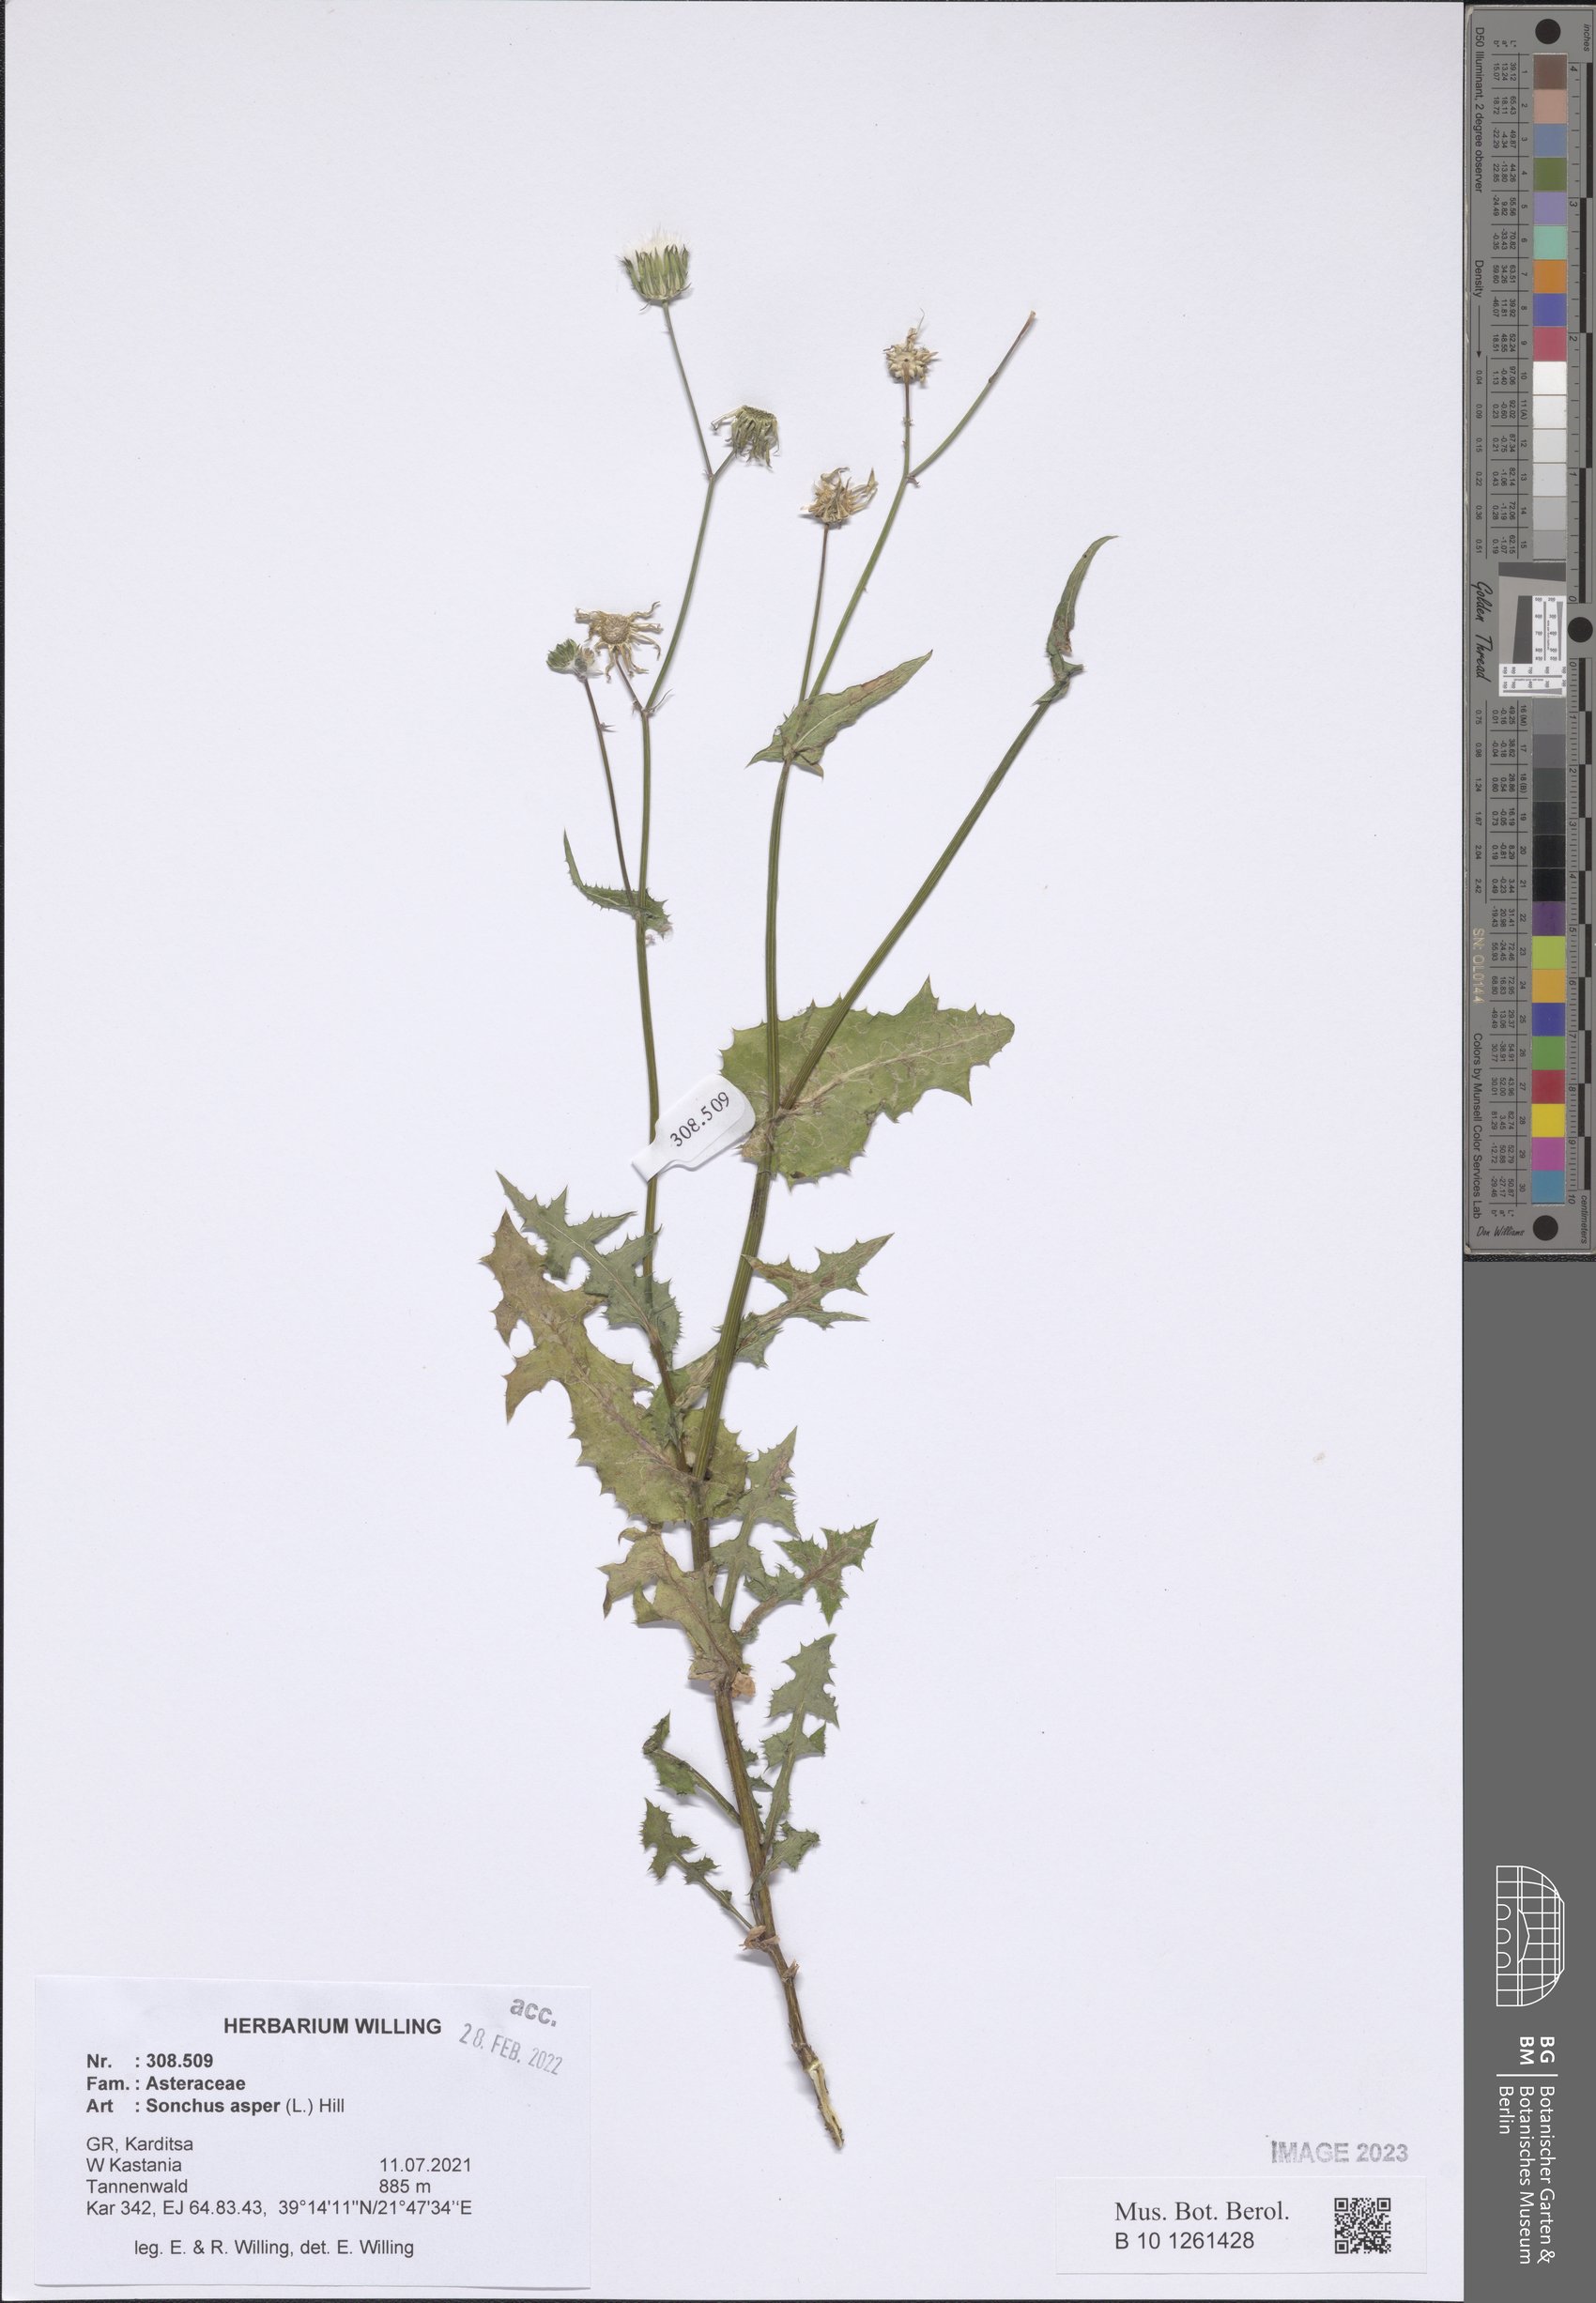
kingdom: Plantae
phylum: Tracheophyta
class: Magnoliopsida
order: Asterales
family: Asteraceae
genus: Sonchus
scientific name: Sonchus asper
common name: Prickly sow-thistle
